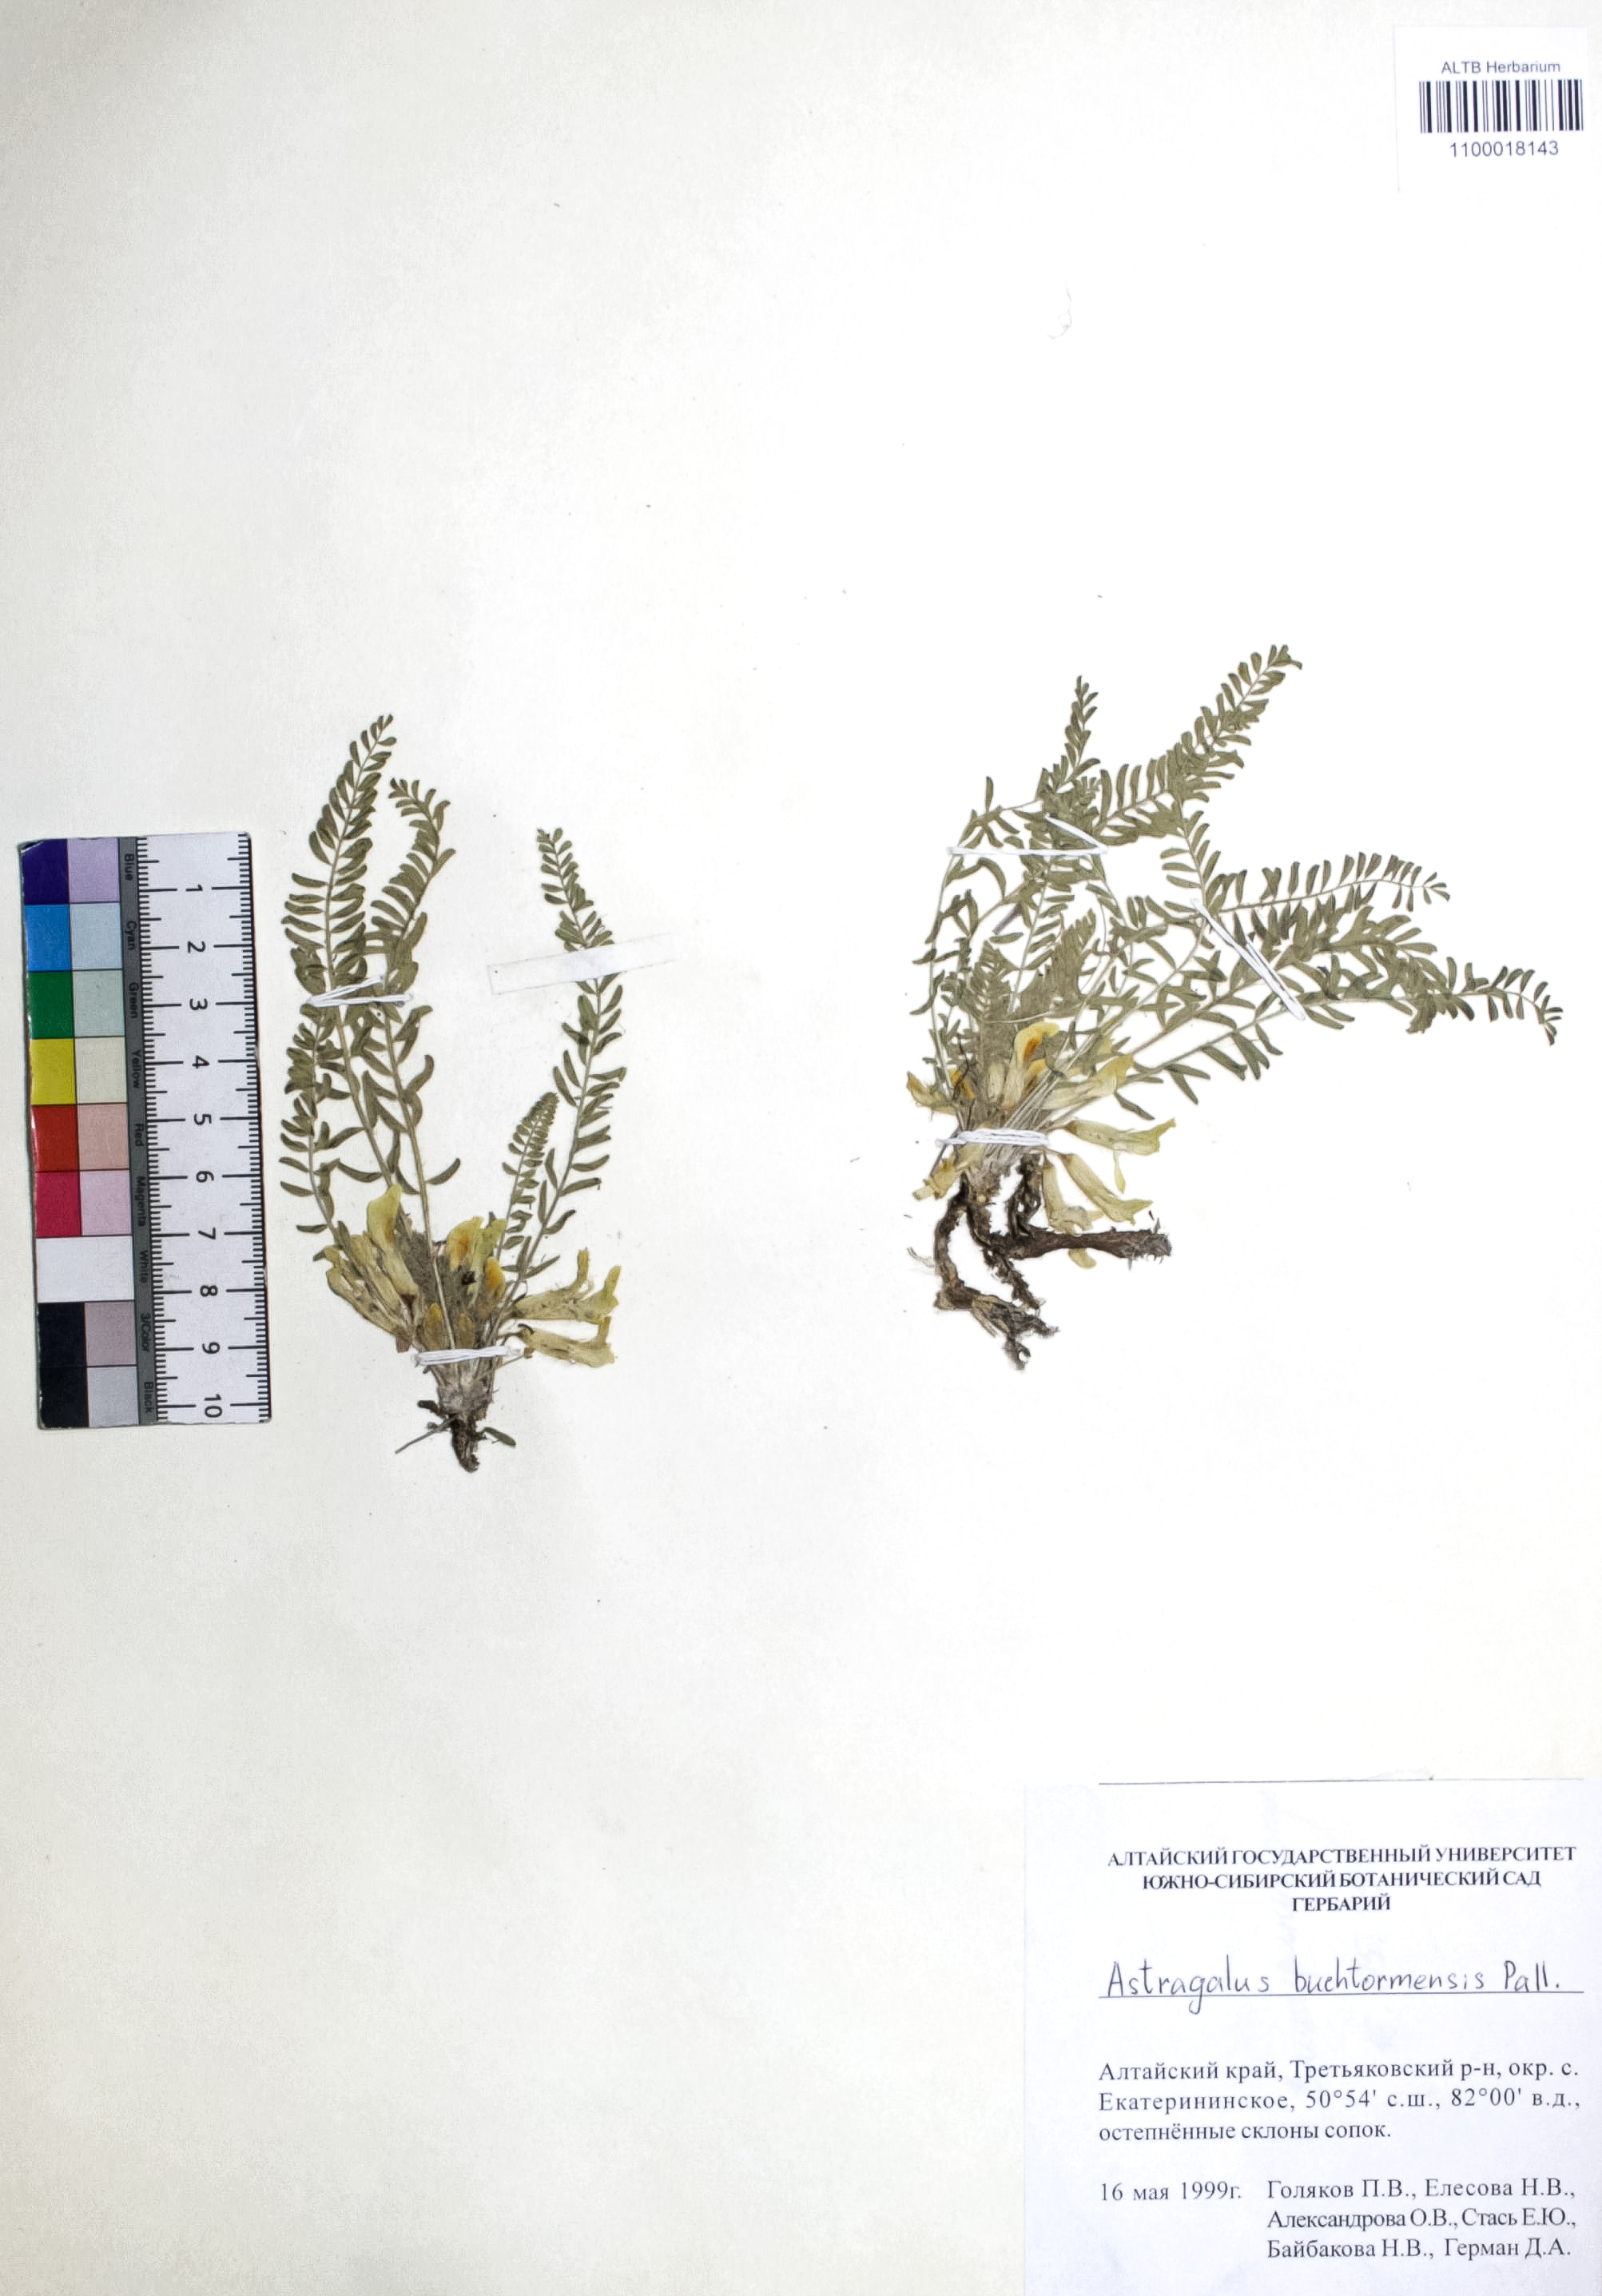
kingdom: Plantae
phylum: Tracheophyta
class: Magnoliopsida
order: Fabales
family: Fabaceae
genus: Astragalus
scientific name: Astragalus buchtormensis
